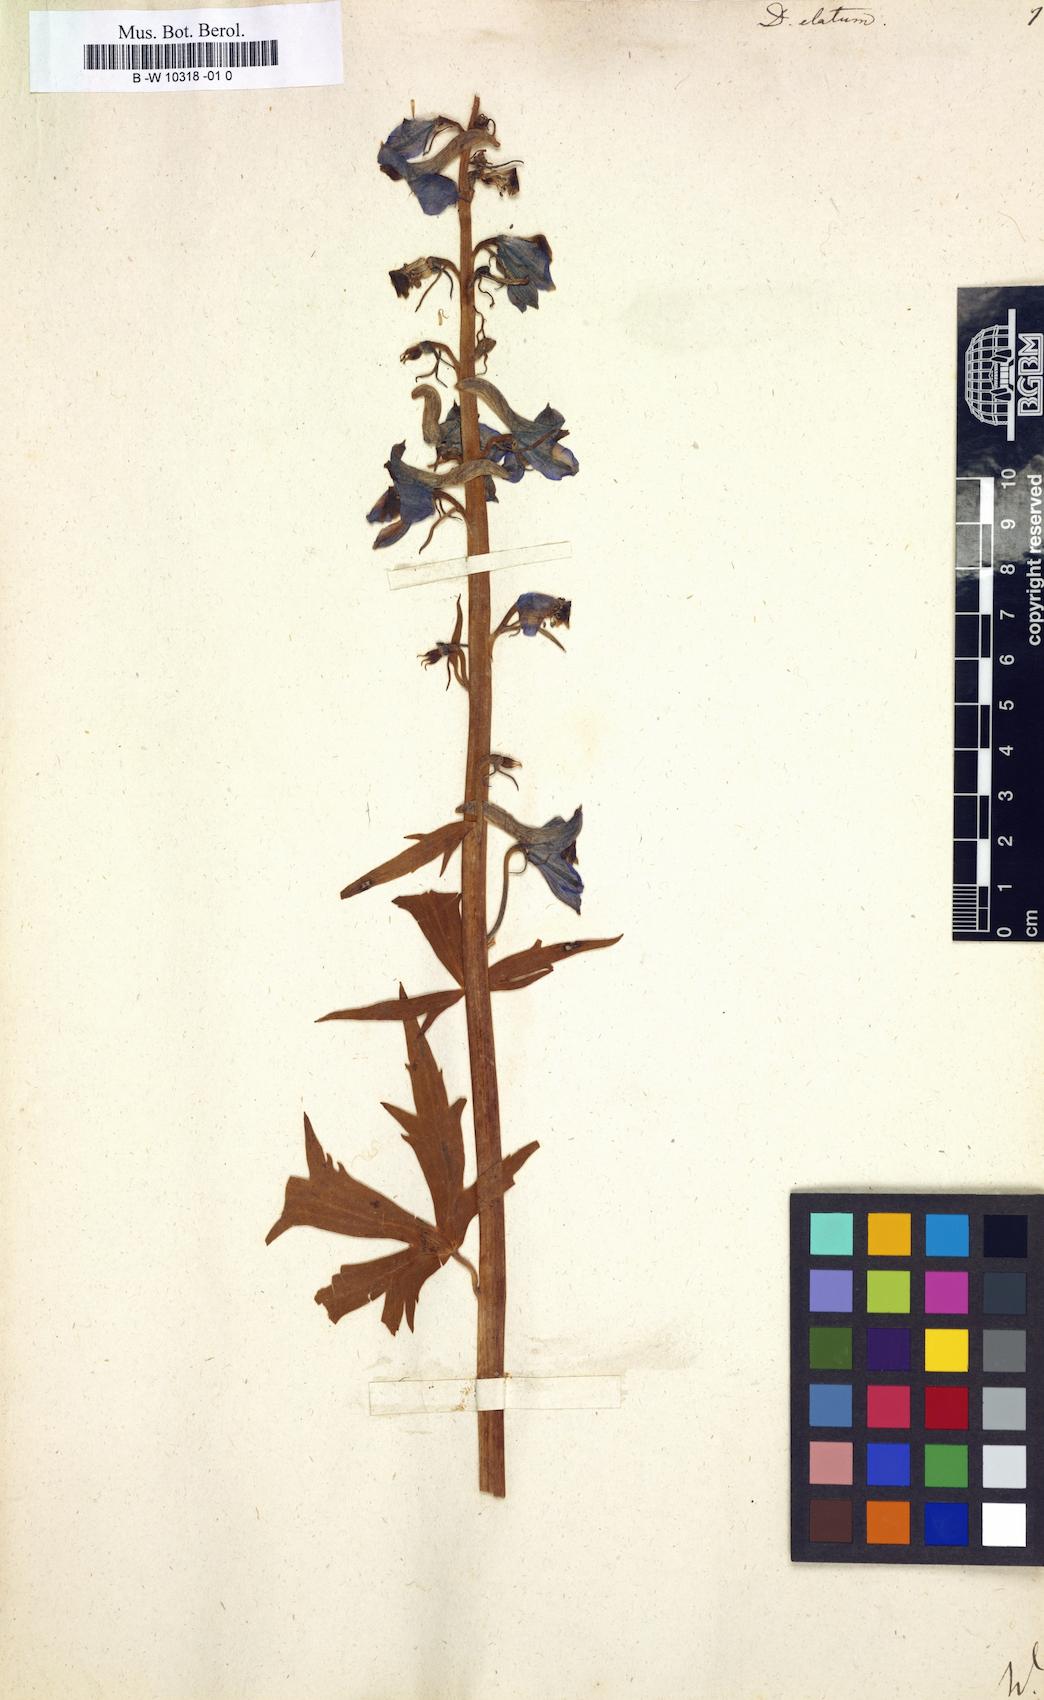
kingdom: Plantae
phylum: Tracheophyta
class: Magnoliopsida
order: Ranunculales
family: Ranunculaceae
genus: Delphinium
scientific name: Delphinium elatum
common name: Candle larkspur
